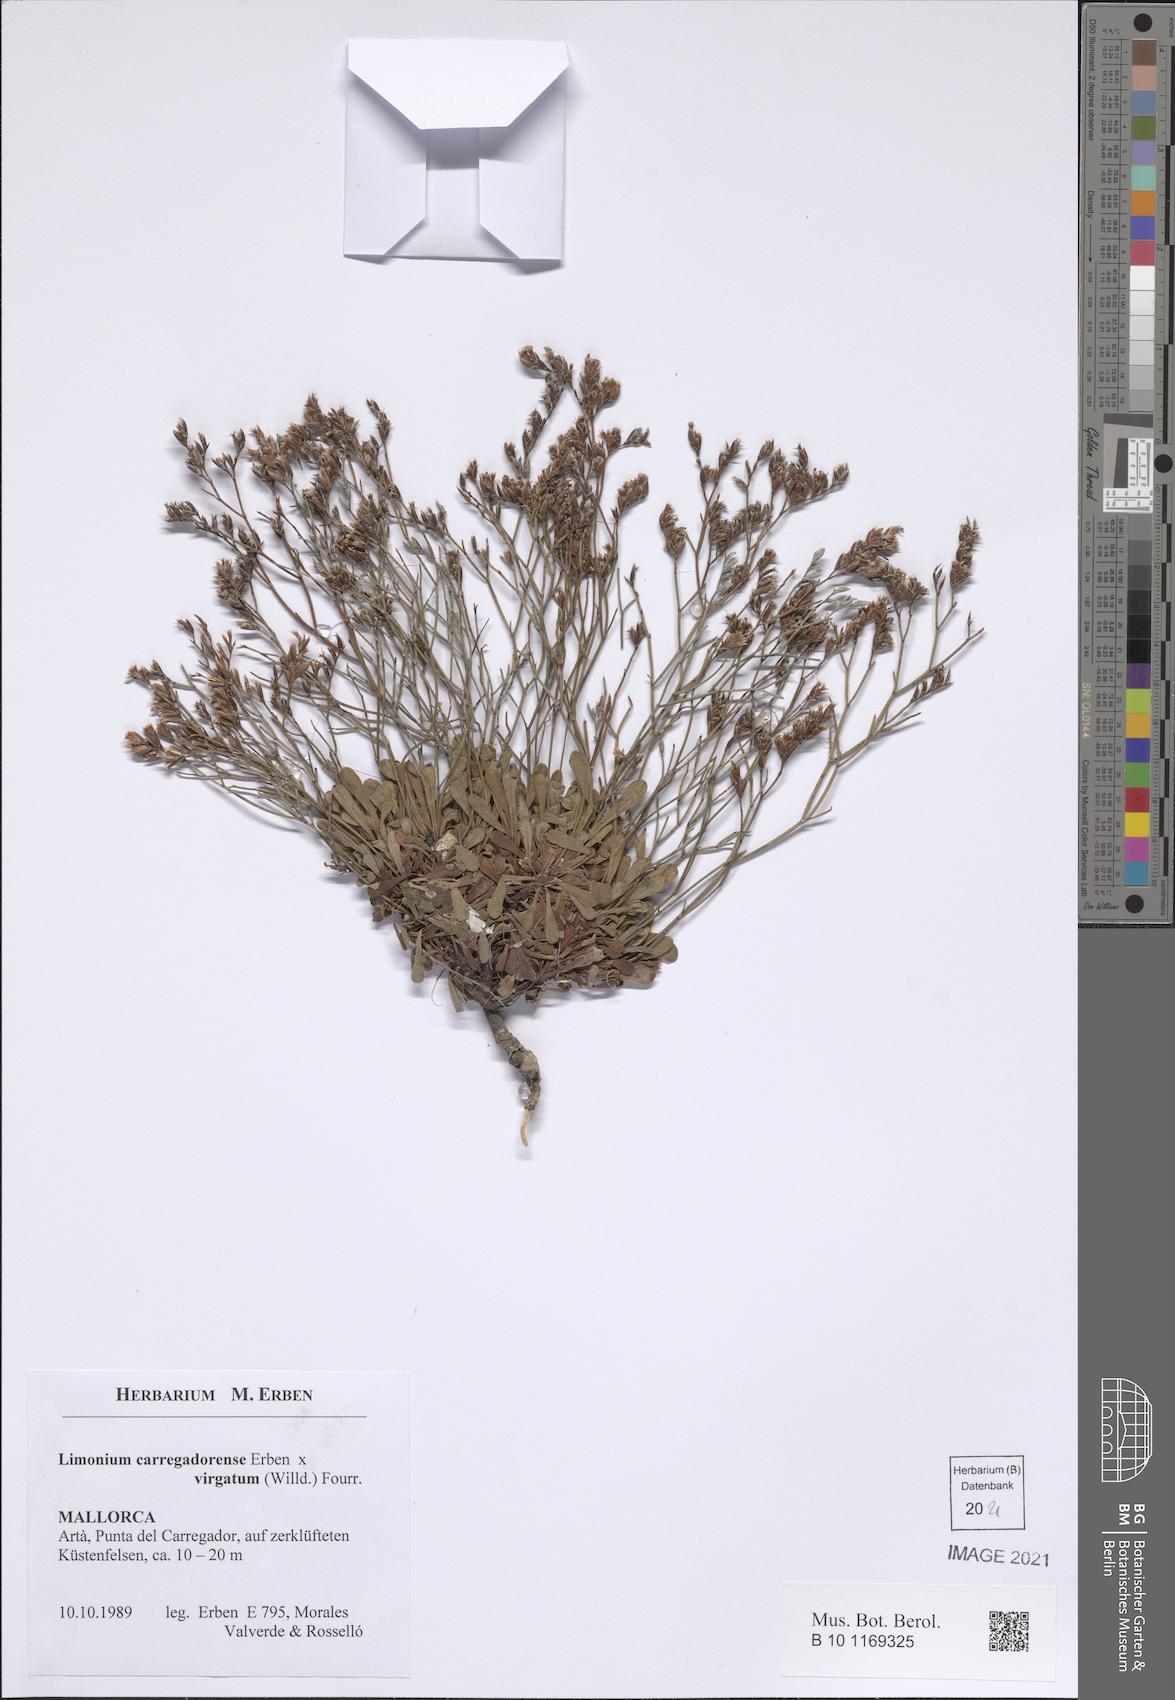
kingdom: Plantae
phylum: Tracheophyta
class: Magnoliopsida
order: Caryophyllales
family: Plumbaginaceae
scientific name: Plumbaginaceae
